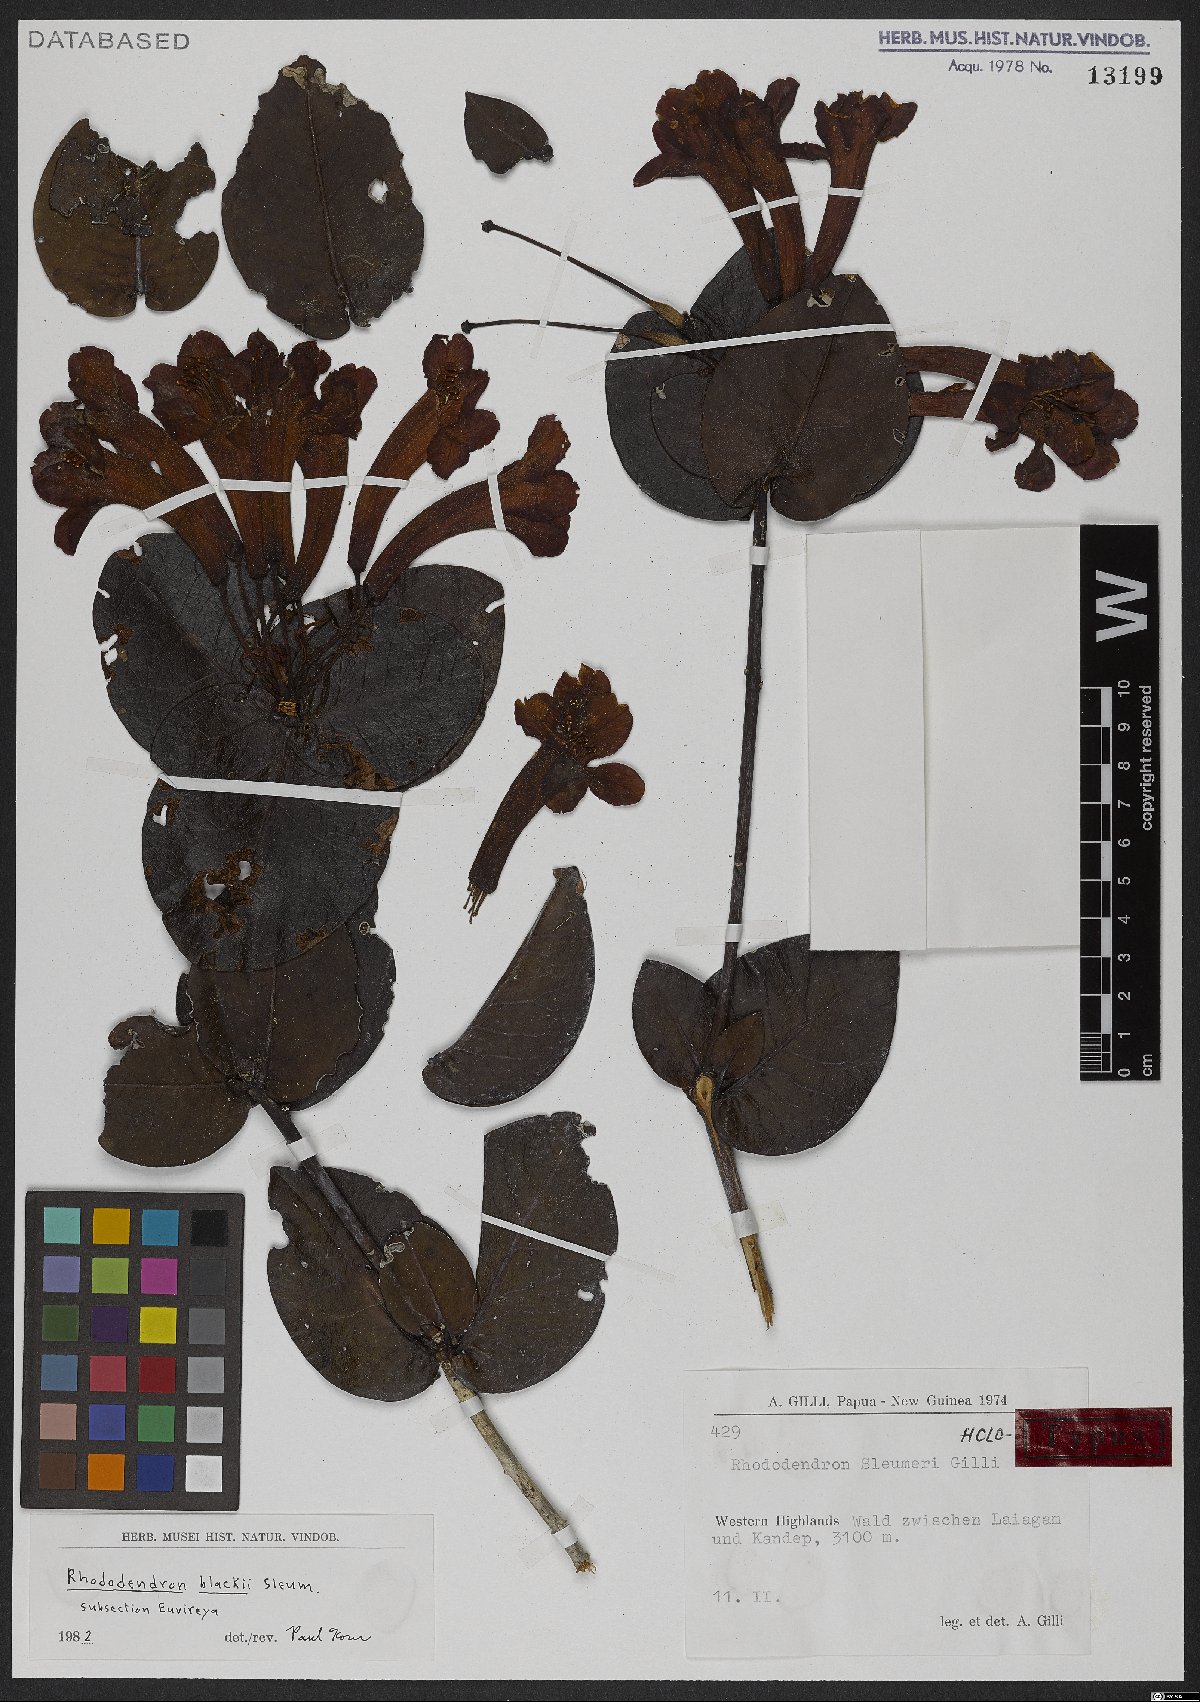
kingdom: Plantae
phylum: Tracheophyta
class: Magnoliopsida
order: Ericales
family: Ericaceae
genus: Rhododendron
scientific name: Rhododendron blackii
